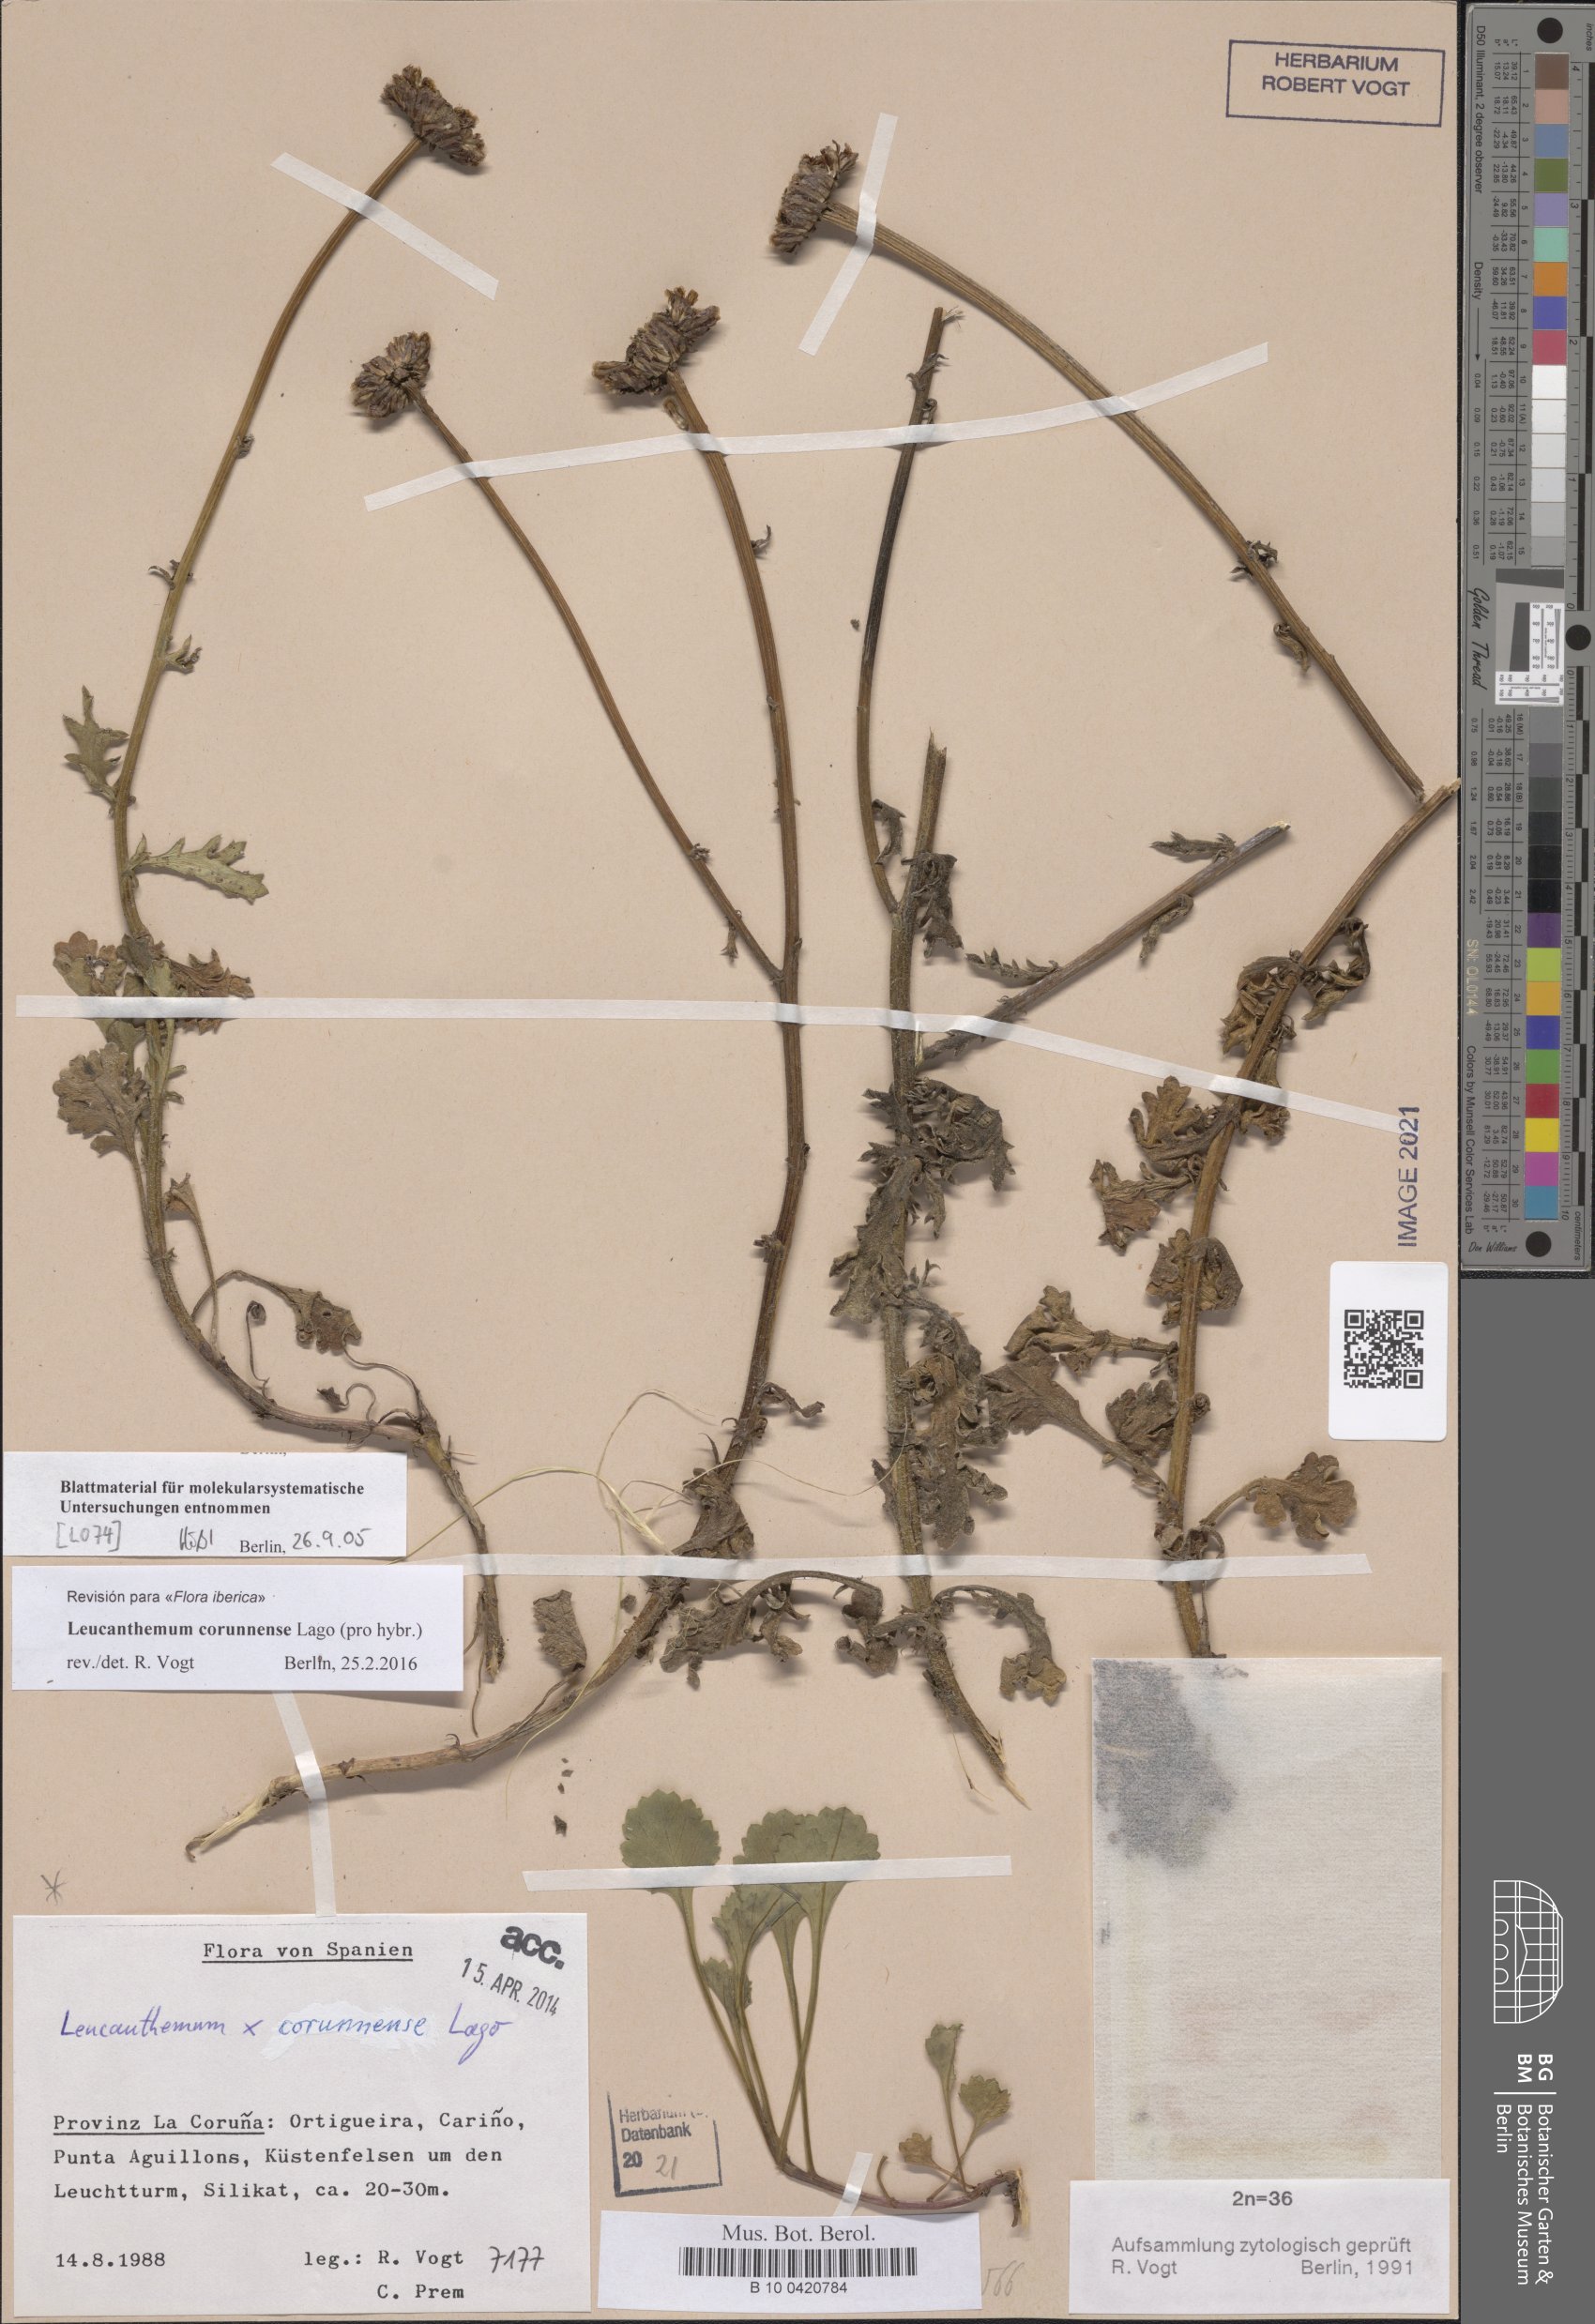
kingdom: Plantae
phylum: Tracheophyta
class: Magnoliopsida
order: Asterales
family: Asteraceae
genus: Leucanthemum
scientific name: Leucanthemum corunnense
